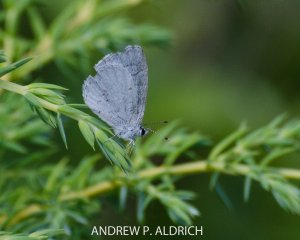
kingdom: Animalia
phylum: Arthropoda
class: Insecta
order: Lepidoptera
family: Lycaenidae
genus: Celastrina
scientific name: Celastrina
